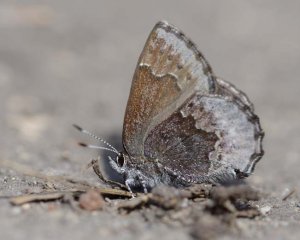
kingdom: Animalia
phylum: Arthropoda
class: Insecta
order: Lepidoptera
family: Lycaenidae
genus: Callophrys
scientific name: Callophrys polios
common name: Hoary Elfin
